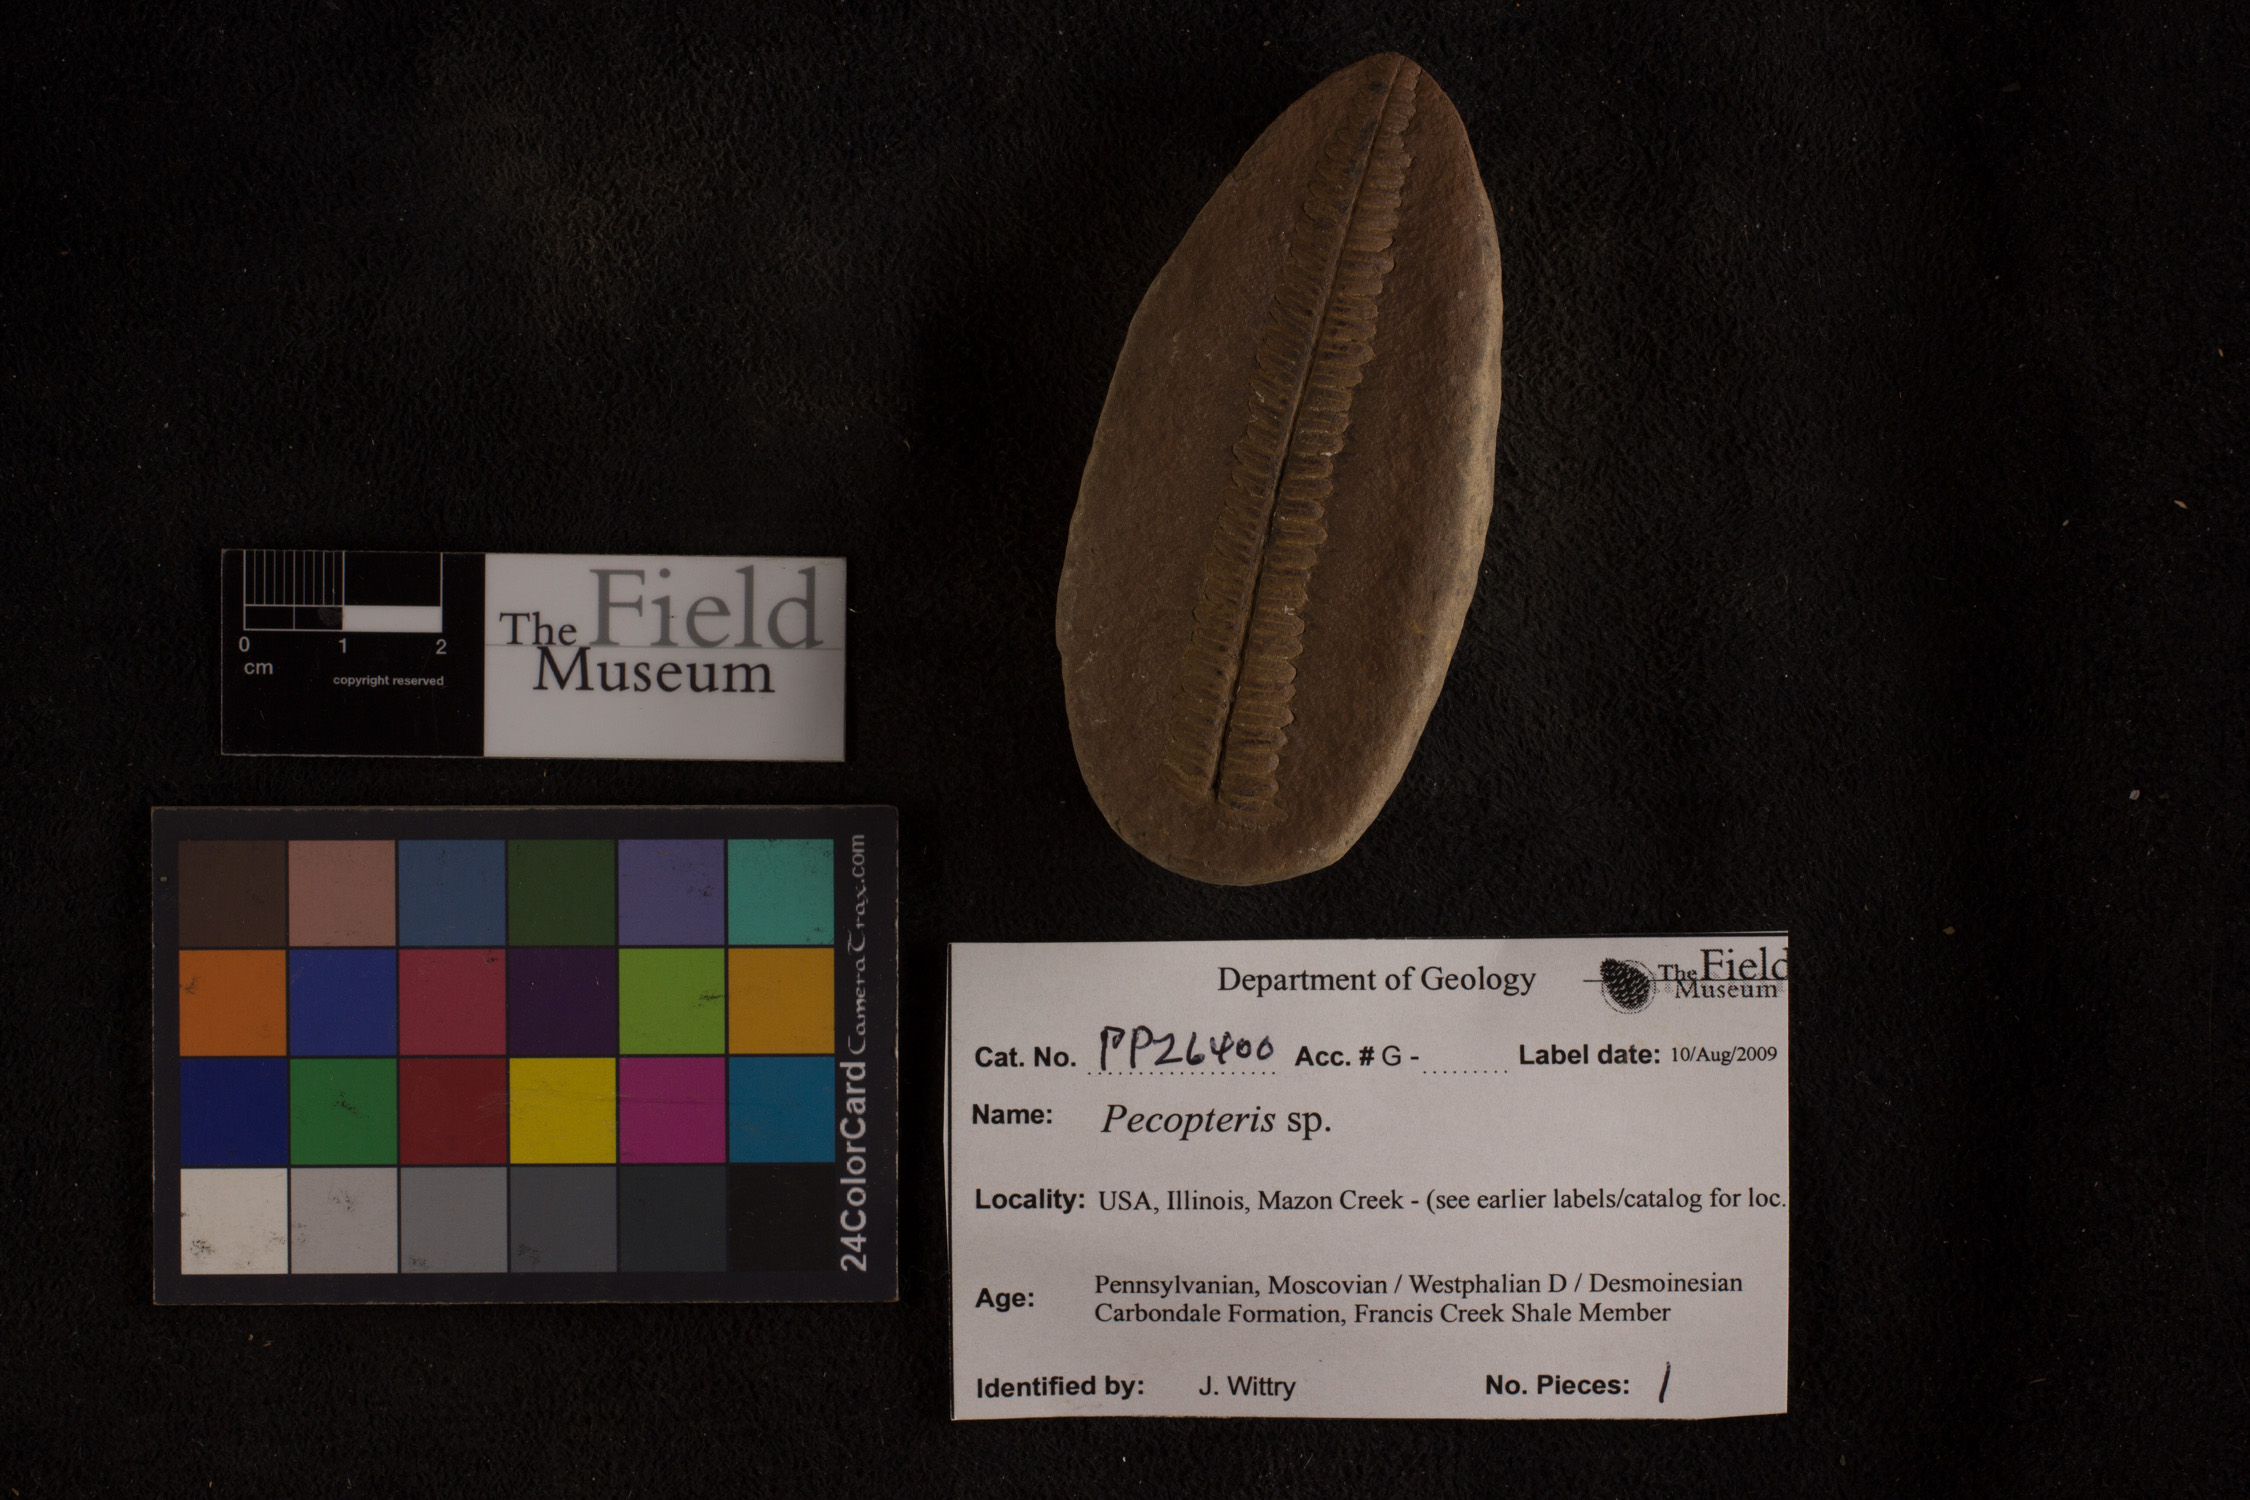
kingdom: Plantae
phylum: Tracheophyta
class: Polypodiopsida
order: Marattiales
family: Asterothecaceae
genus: Pecopteris
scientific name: Pecopteris
